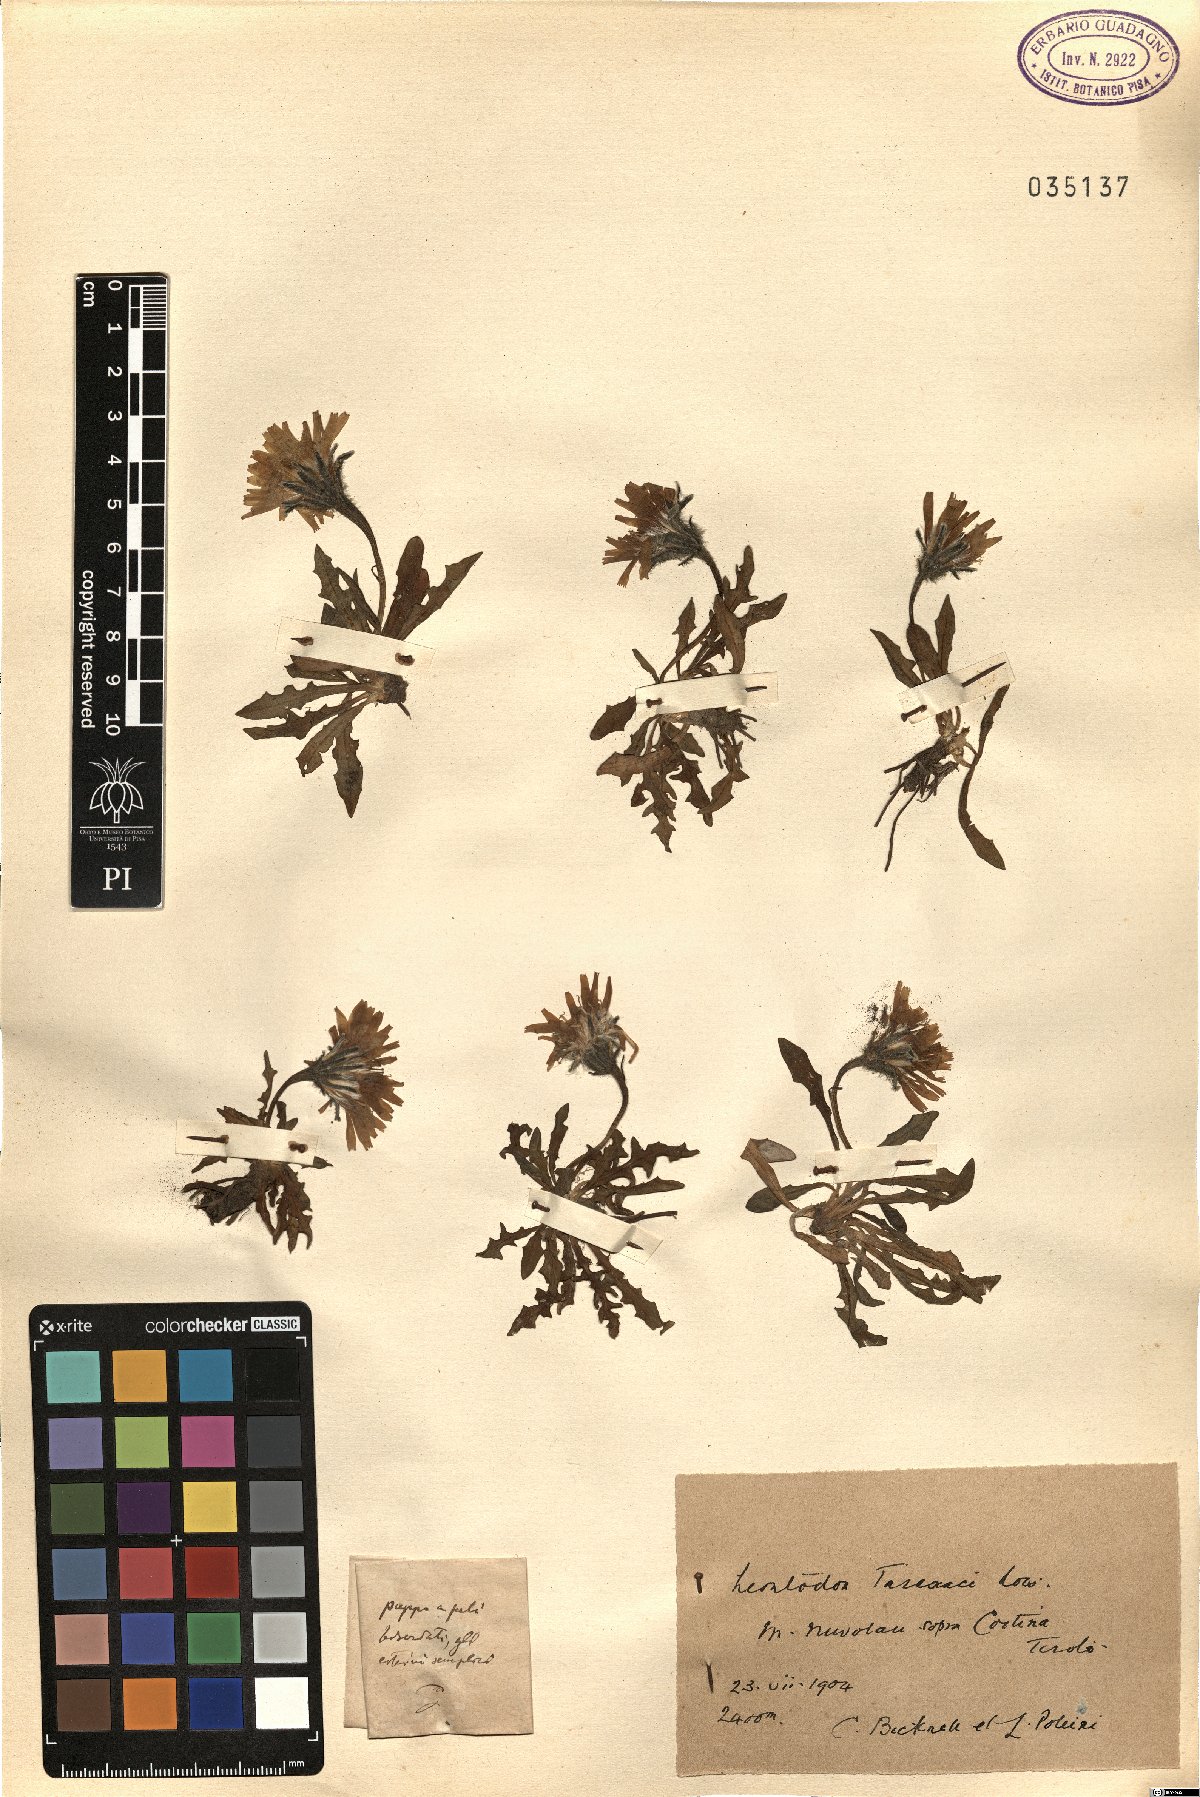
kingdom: Plantae
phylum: Tracheophyta
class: Magnoliopsida
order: Asterales
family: Asteraceae
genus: Scorzoneroides
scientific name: Scorzoneroides hispidula
